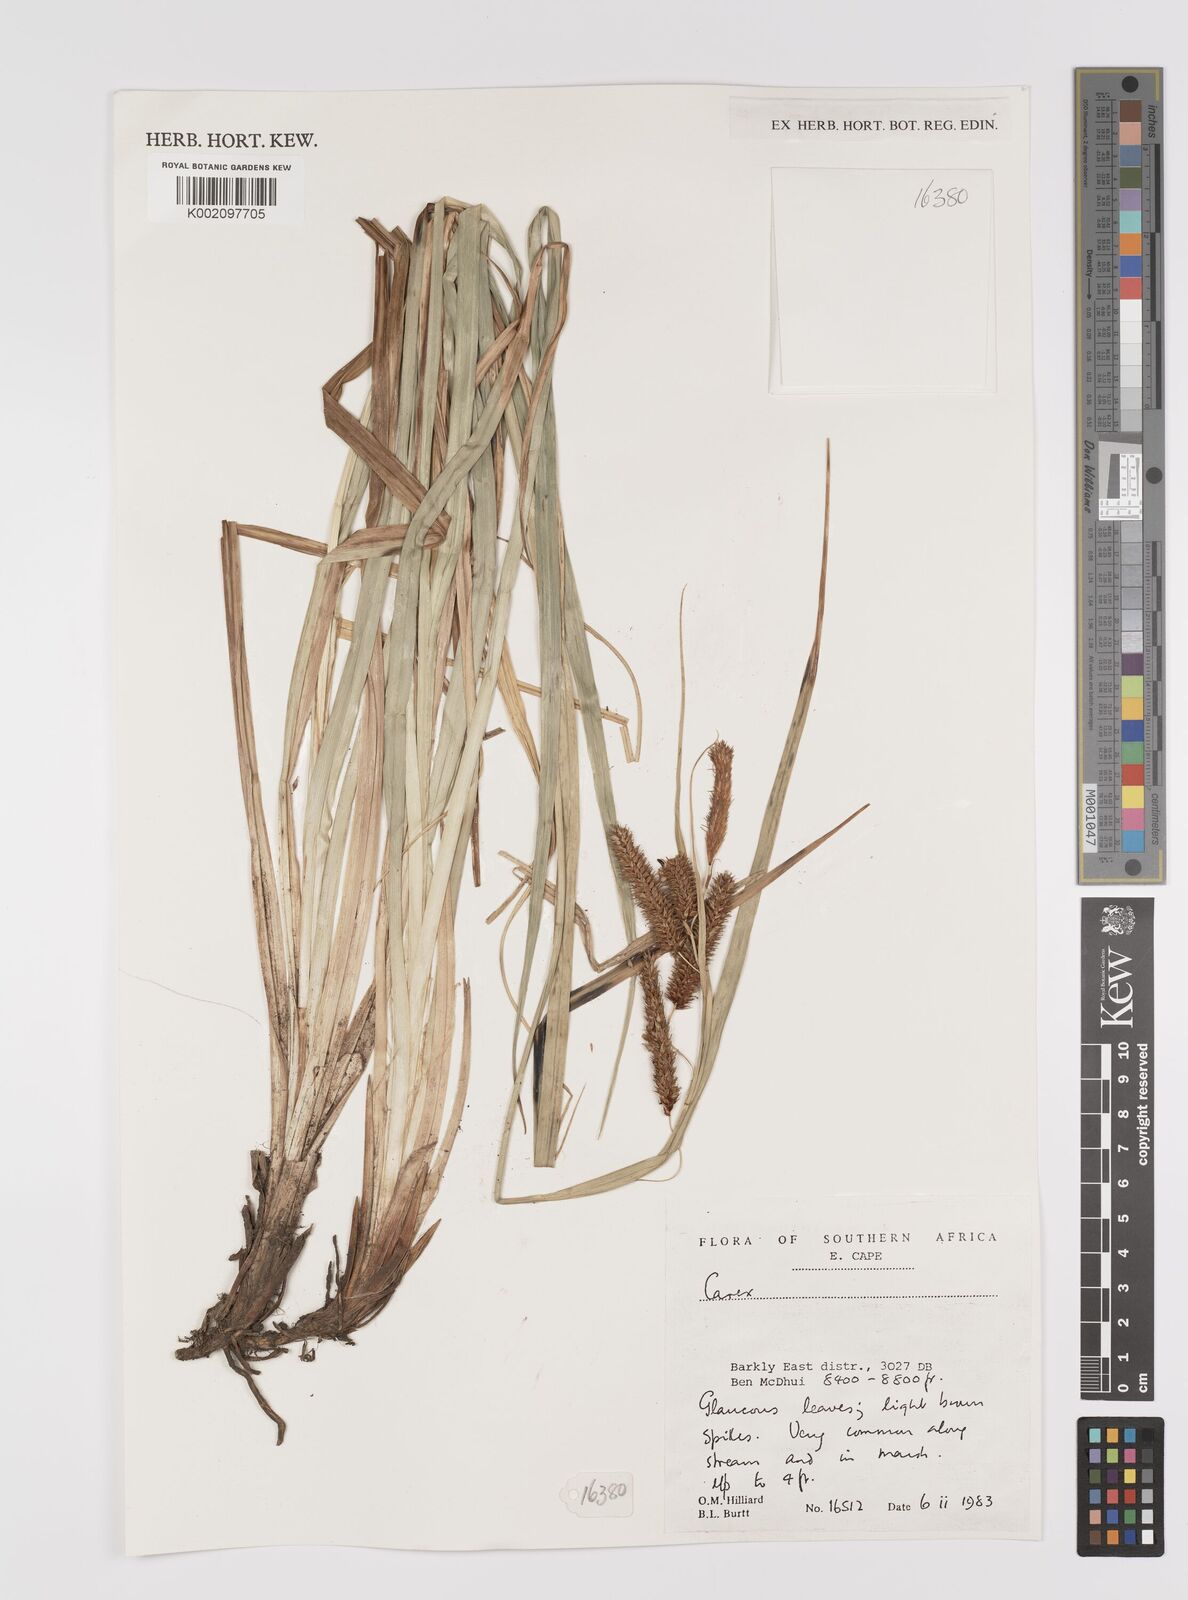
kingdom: Plantae
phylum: Tracheophyta
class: Liliopsida
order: Poales
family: Cyperaceae
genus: Carex
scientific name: Carex
